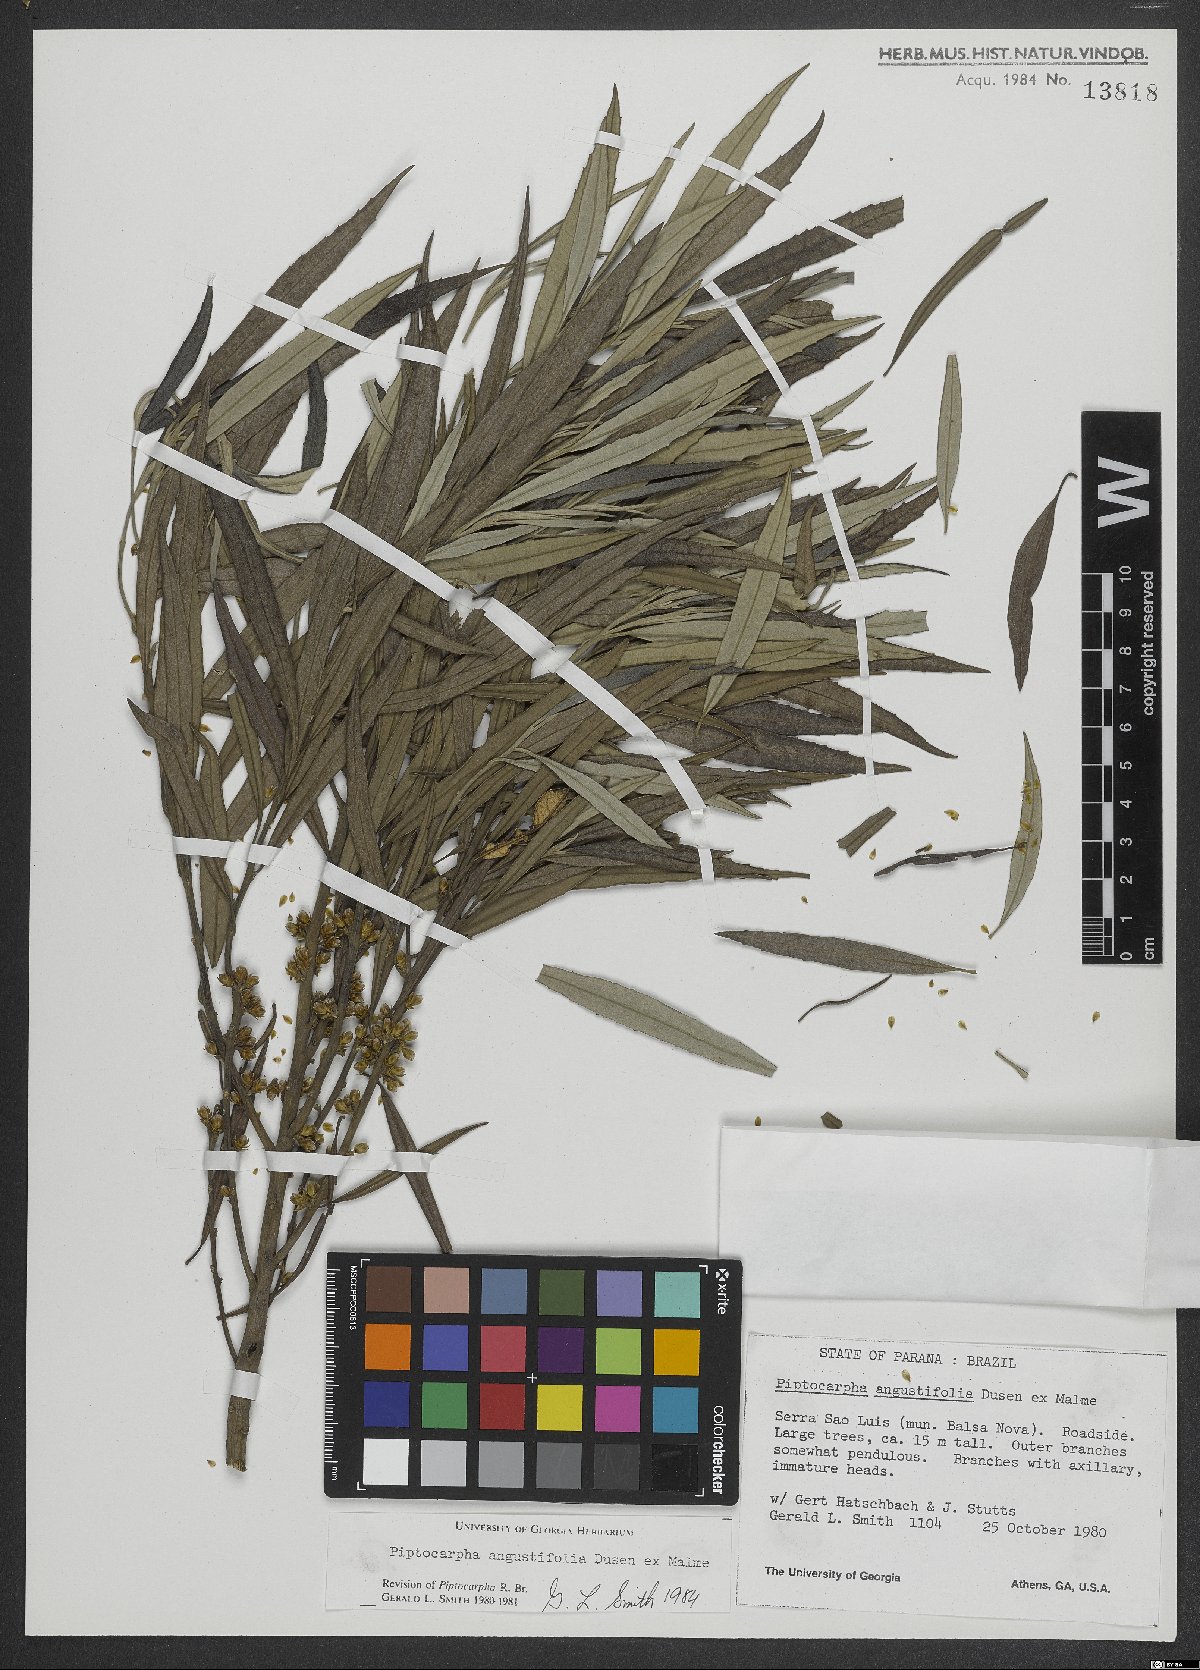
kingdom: Plantae
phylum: Tracheophyta
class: Magnoliopsida
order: Asterales
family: Asteraceae
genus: Piptocarpha
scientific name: Piptocarpha angustifolia
